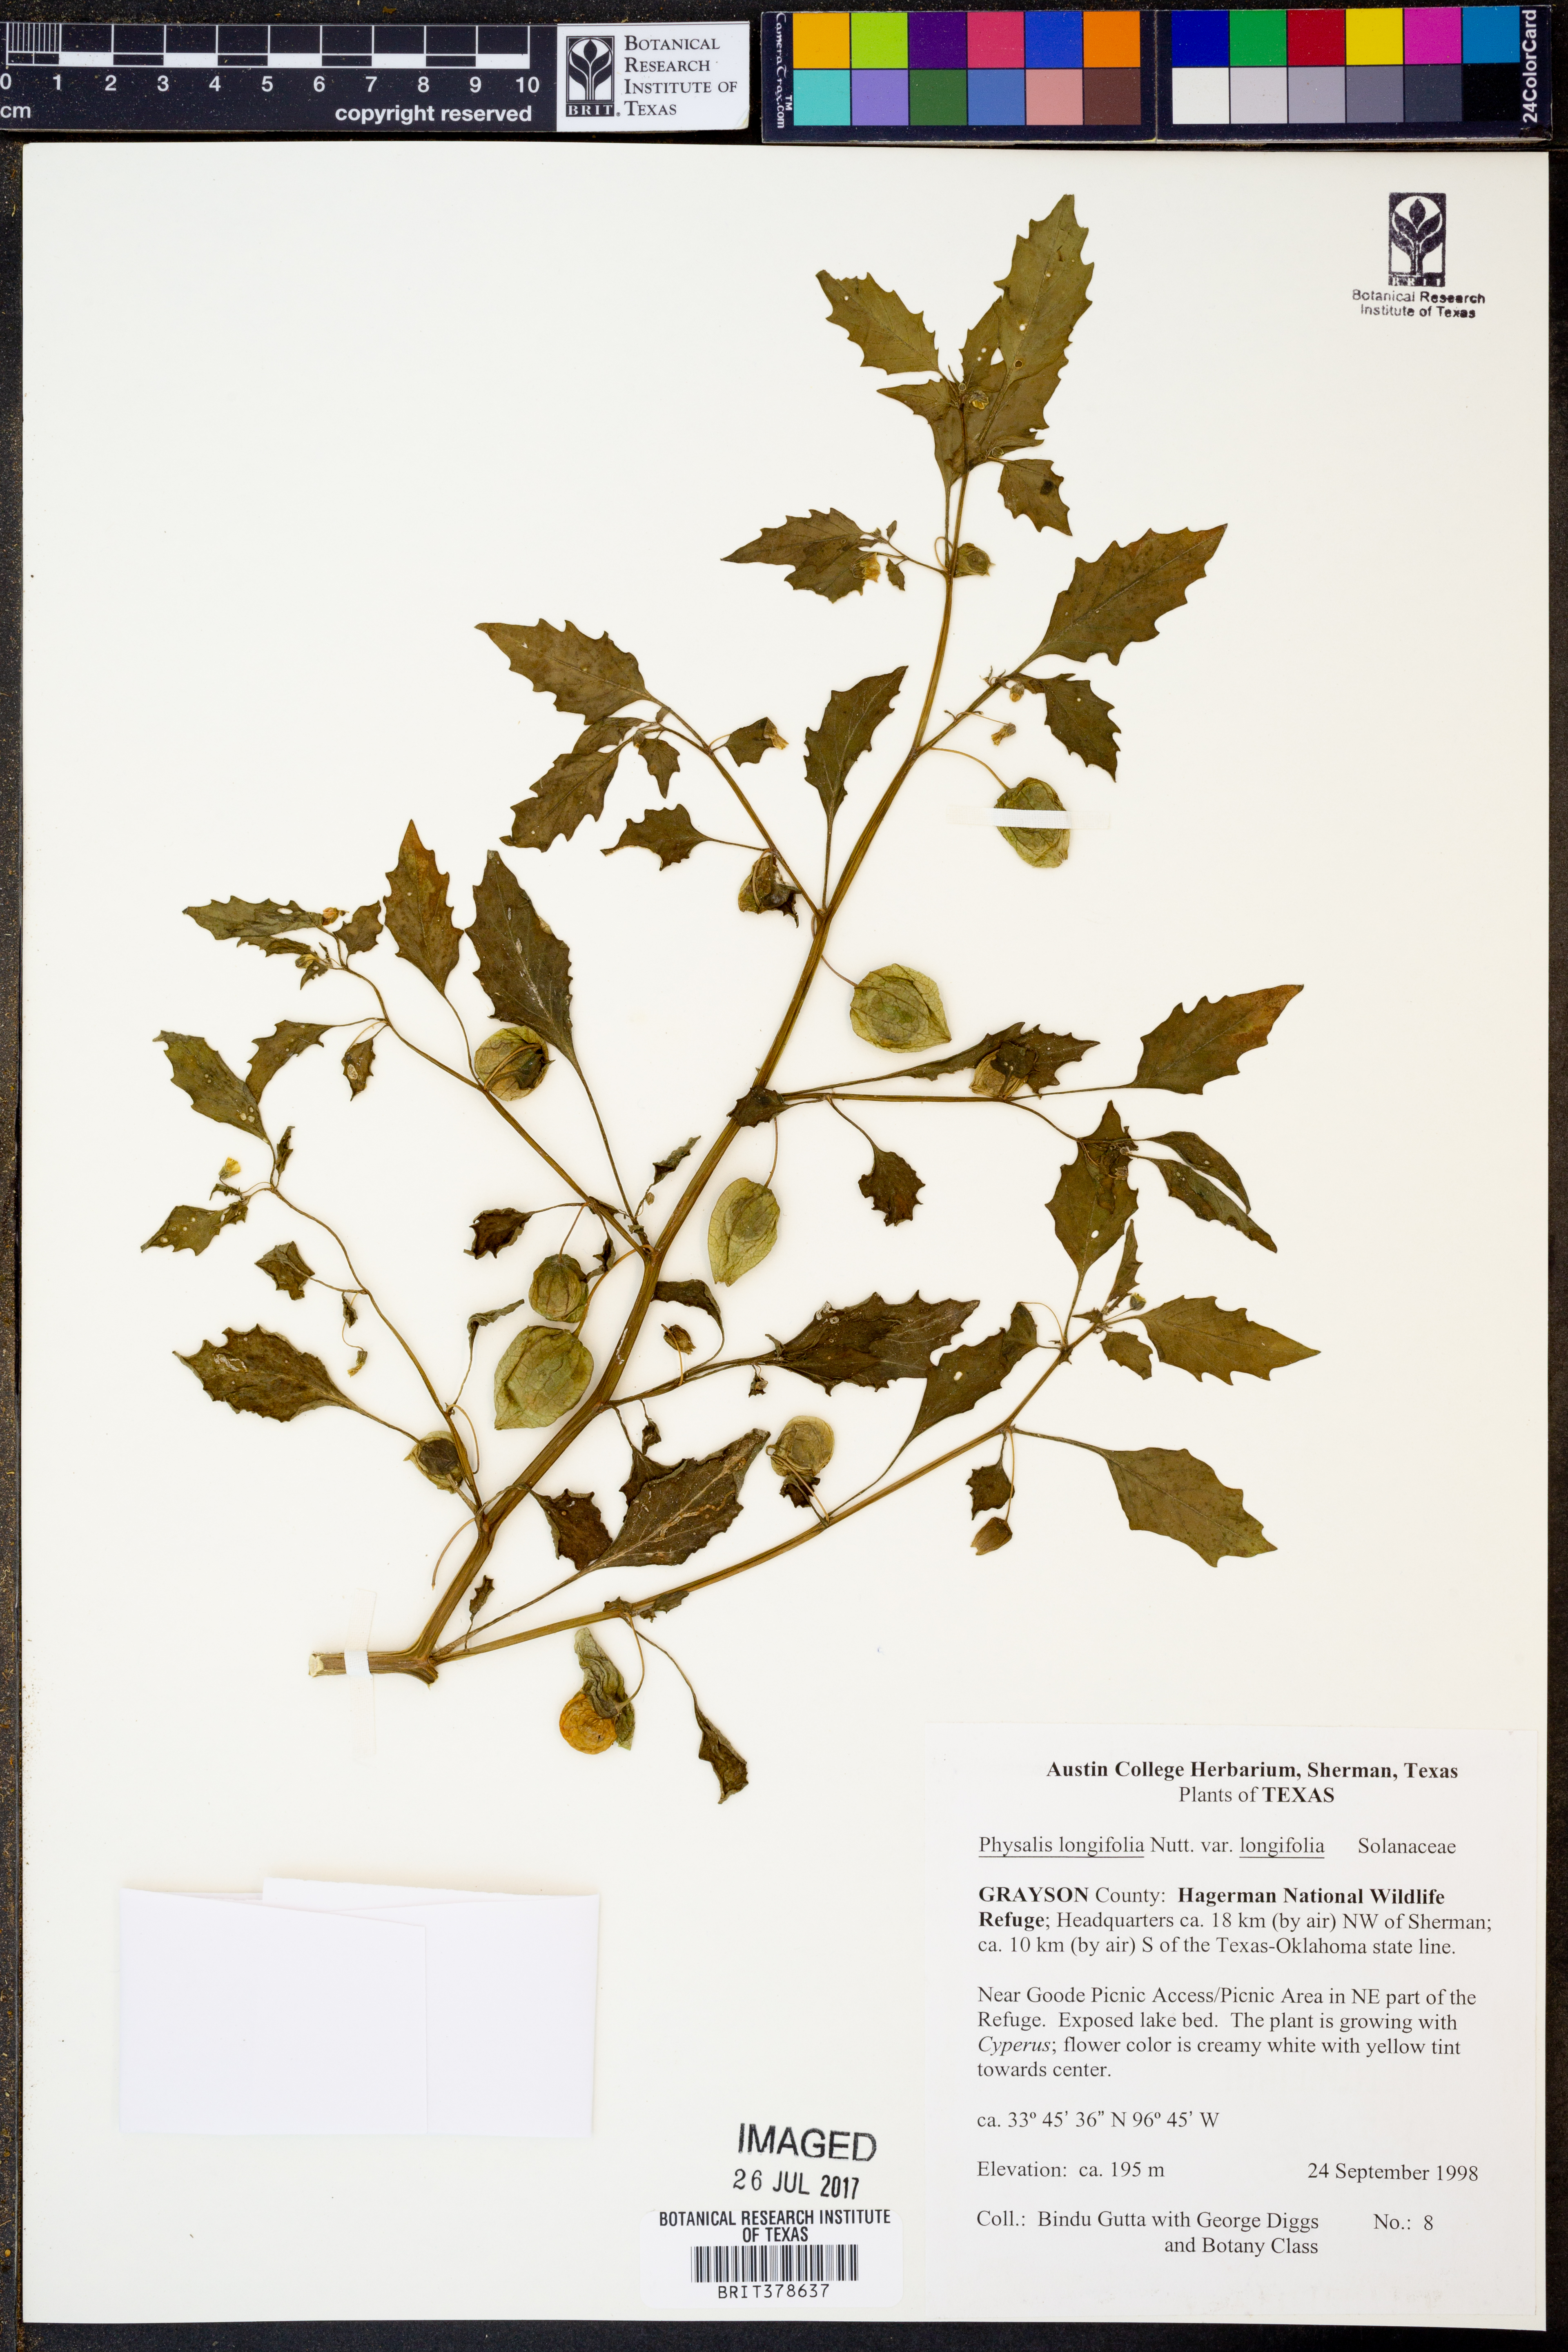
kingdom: Plantae
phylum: Tracheophyta
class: Magnoliopsida
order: Solanales
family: Solanaceae
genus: Physalis
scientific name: Physalis longifolia
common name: Common ground-cherry
